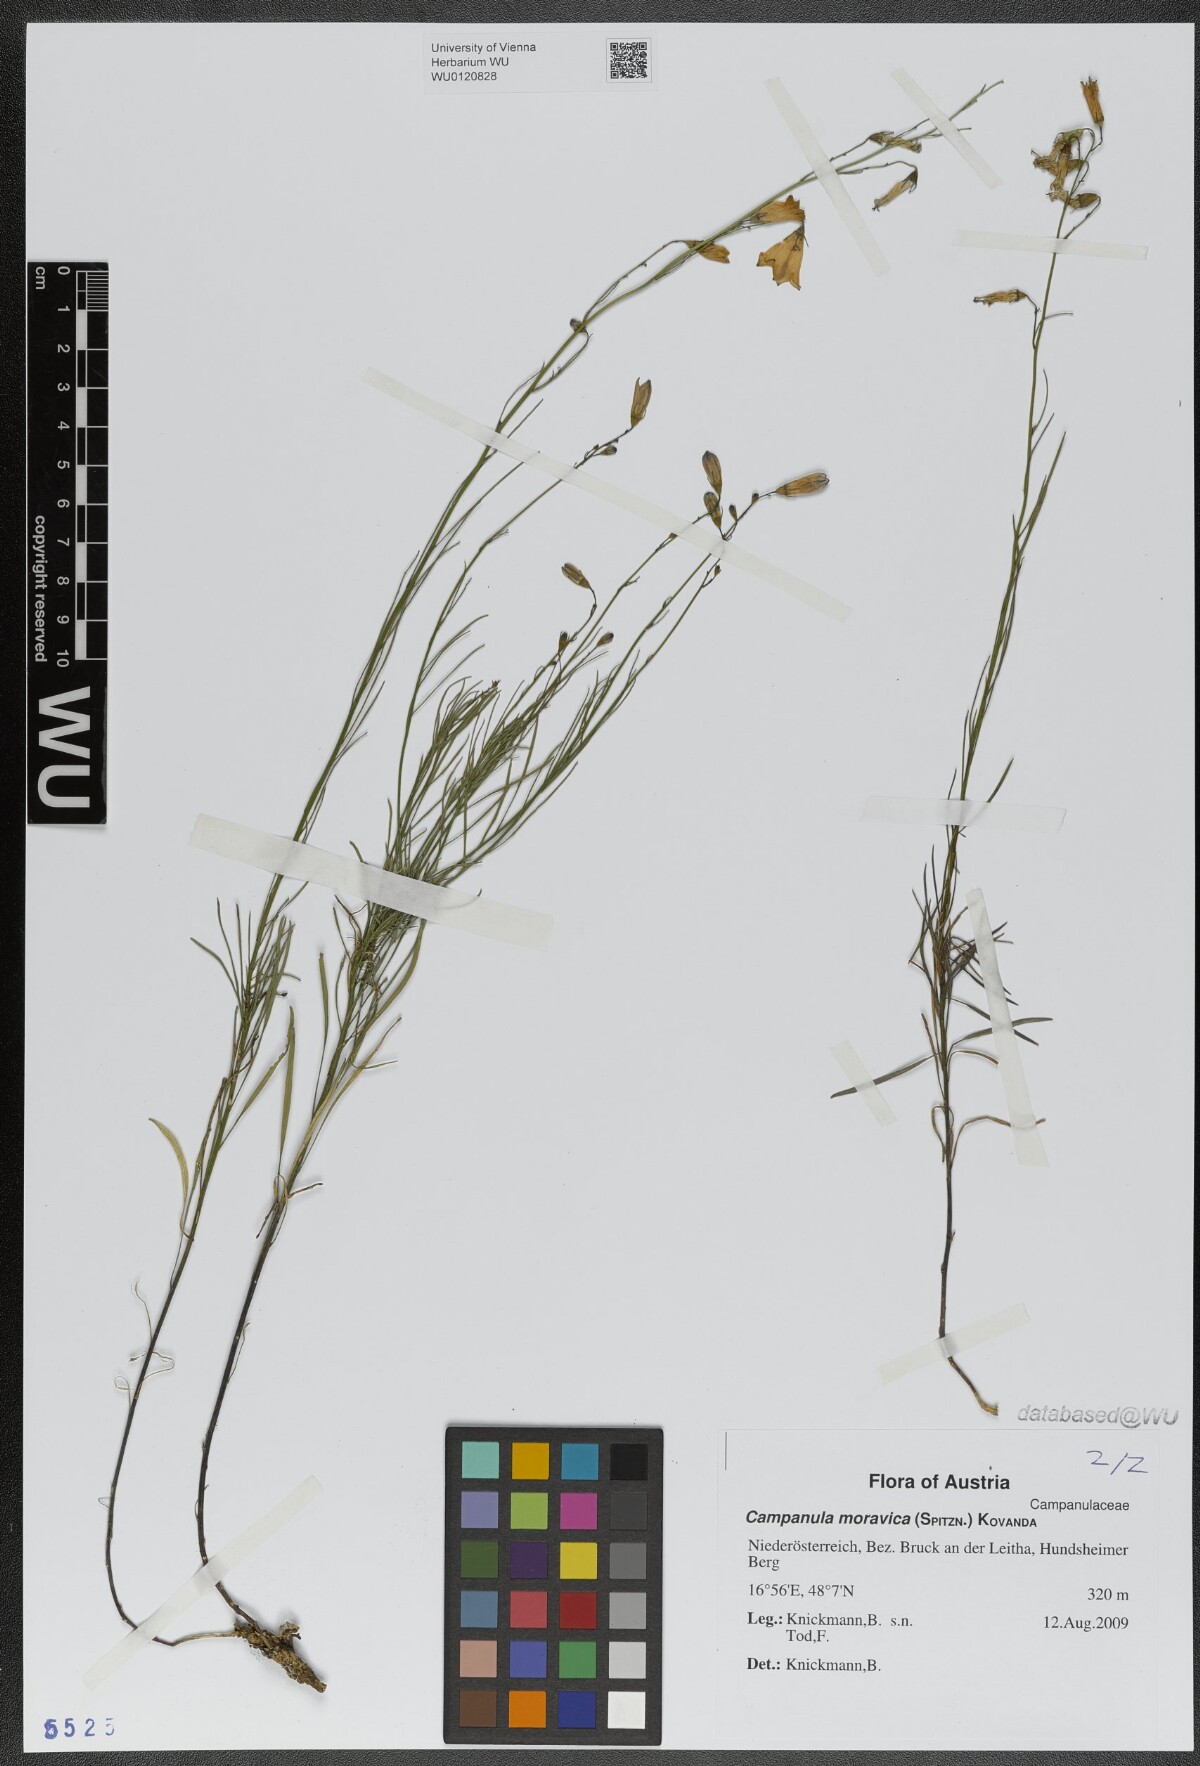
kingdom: Plantae
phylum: Tracheophyta
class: Magnoliopsida
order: Asterales
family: Campanulaceae
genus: Campanula
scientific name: Campanula moravica
